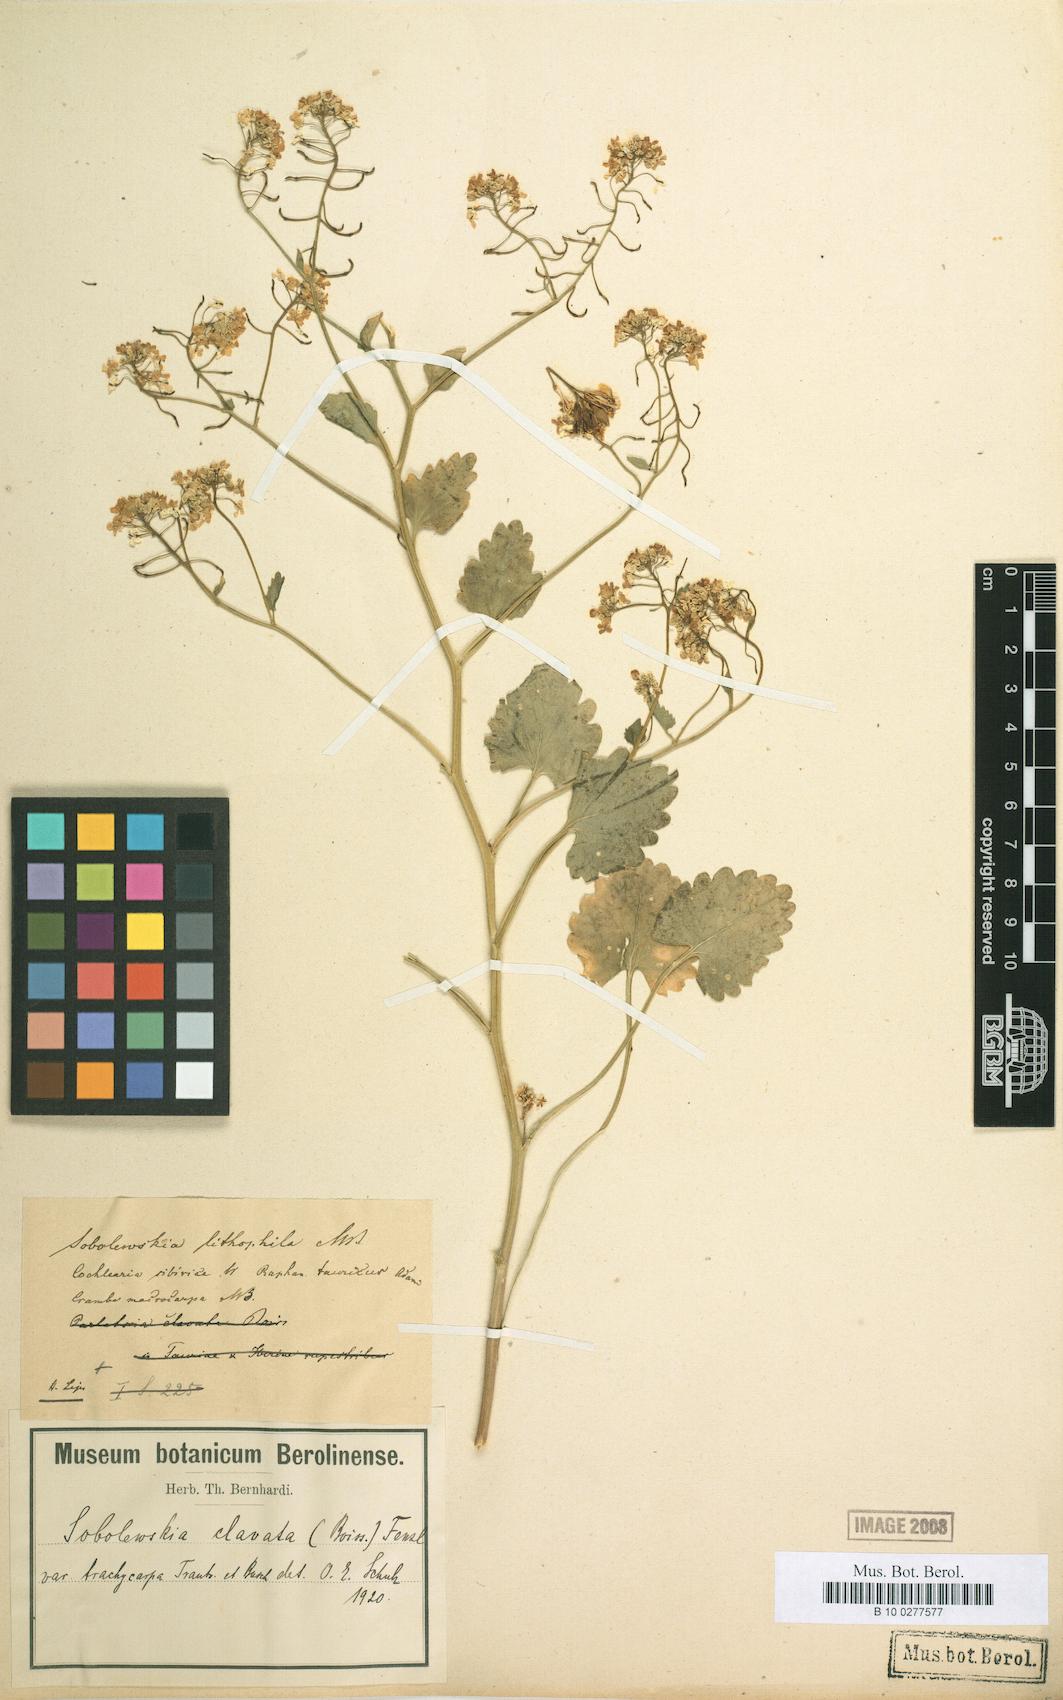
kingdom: Plantae
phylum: Tracheophyta
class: Magnoliopsida
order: Brassicales
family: Brassicaceae
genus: Sobolewskia
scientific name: Sobolewskia clavata
